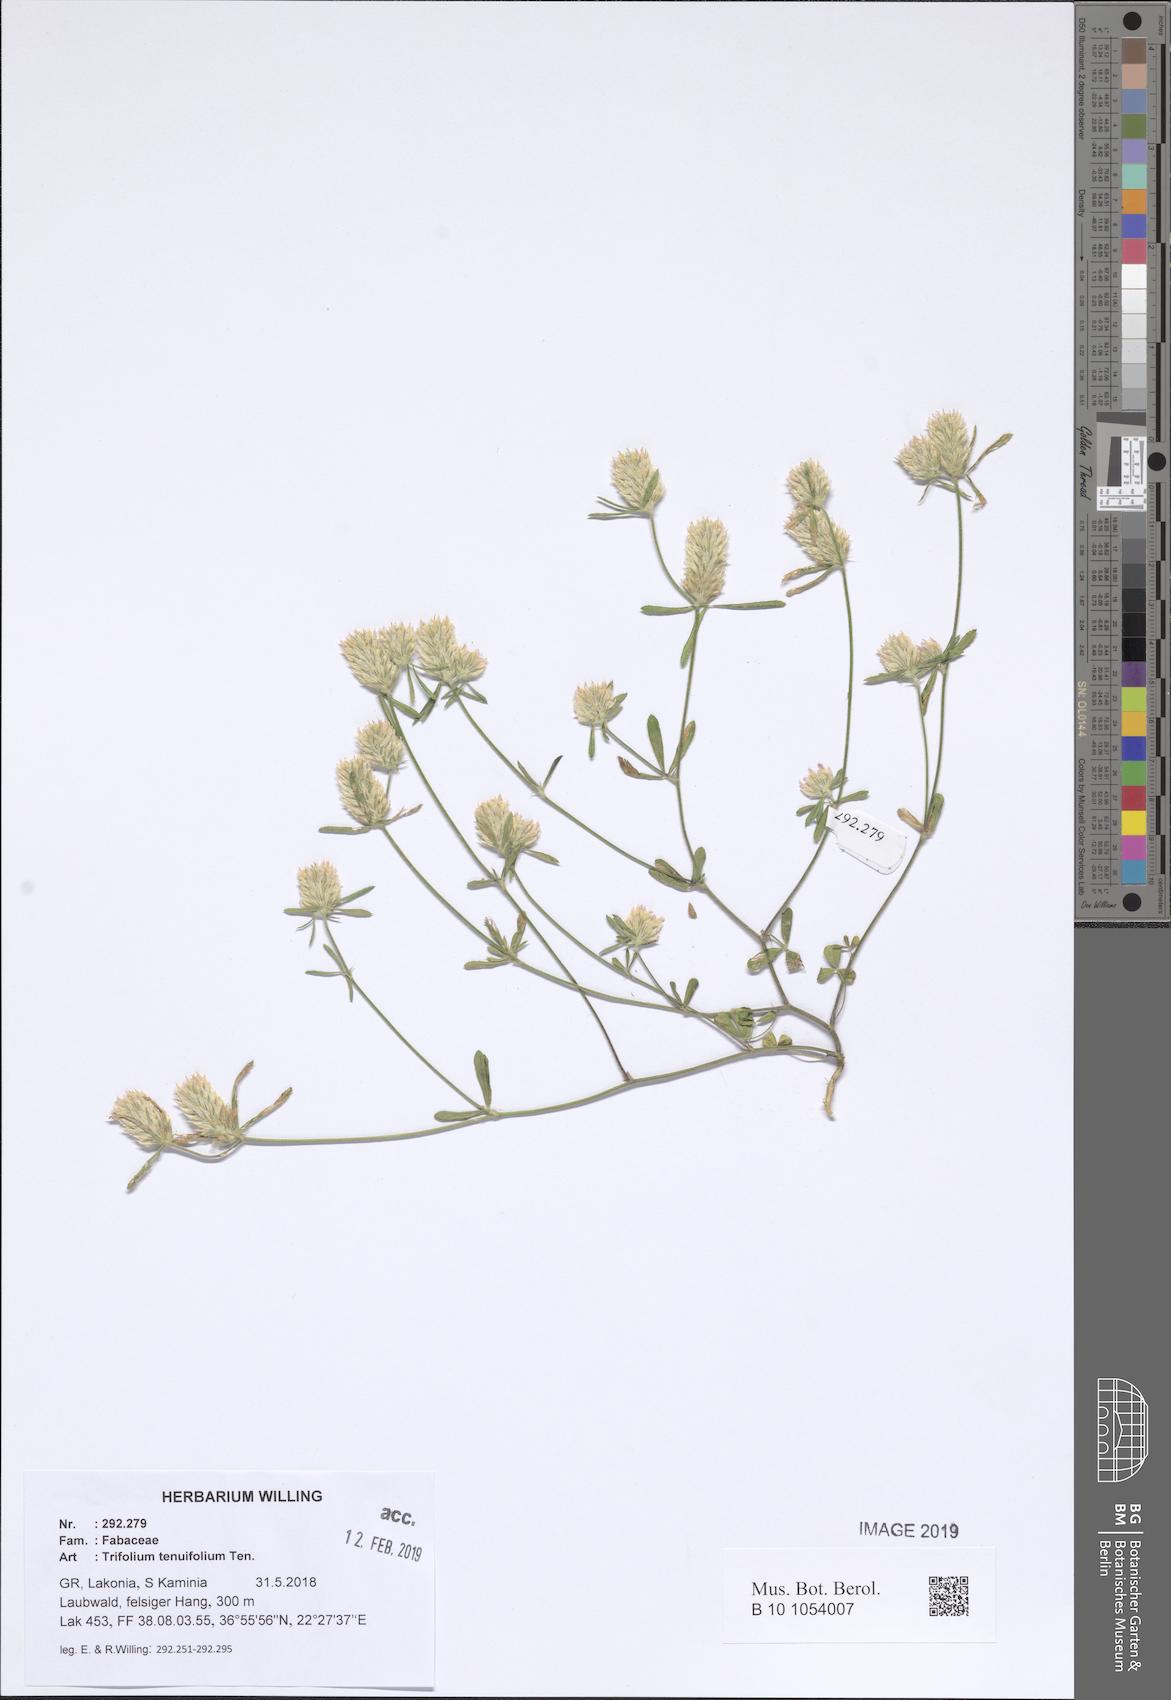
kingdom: Plantae
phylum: Tracheophyta
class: Magnoliopsida
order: Fabales
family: Fabaceae
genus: Trifolium
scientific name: Trifolium tenuifolium
